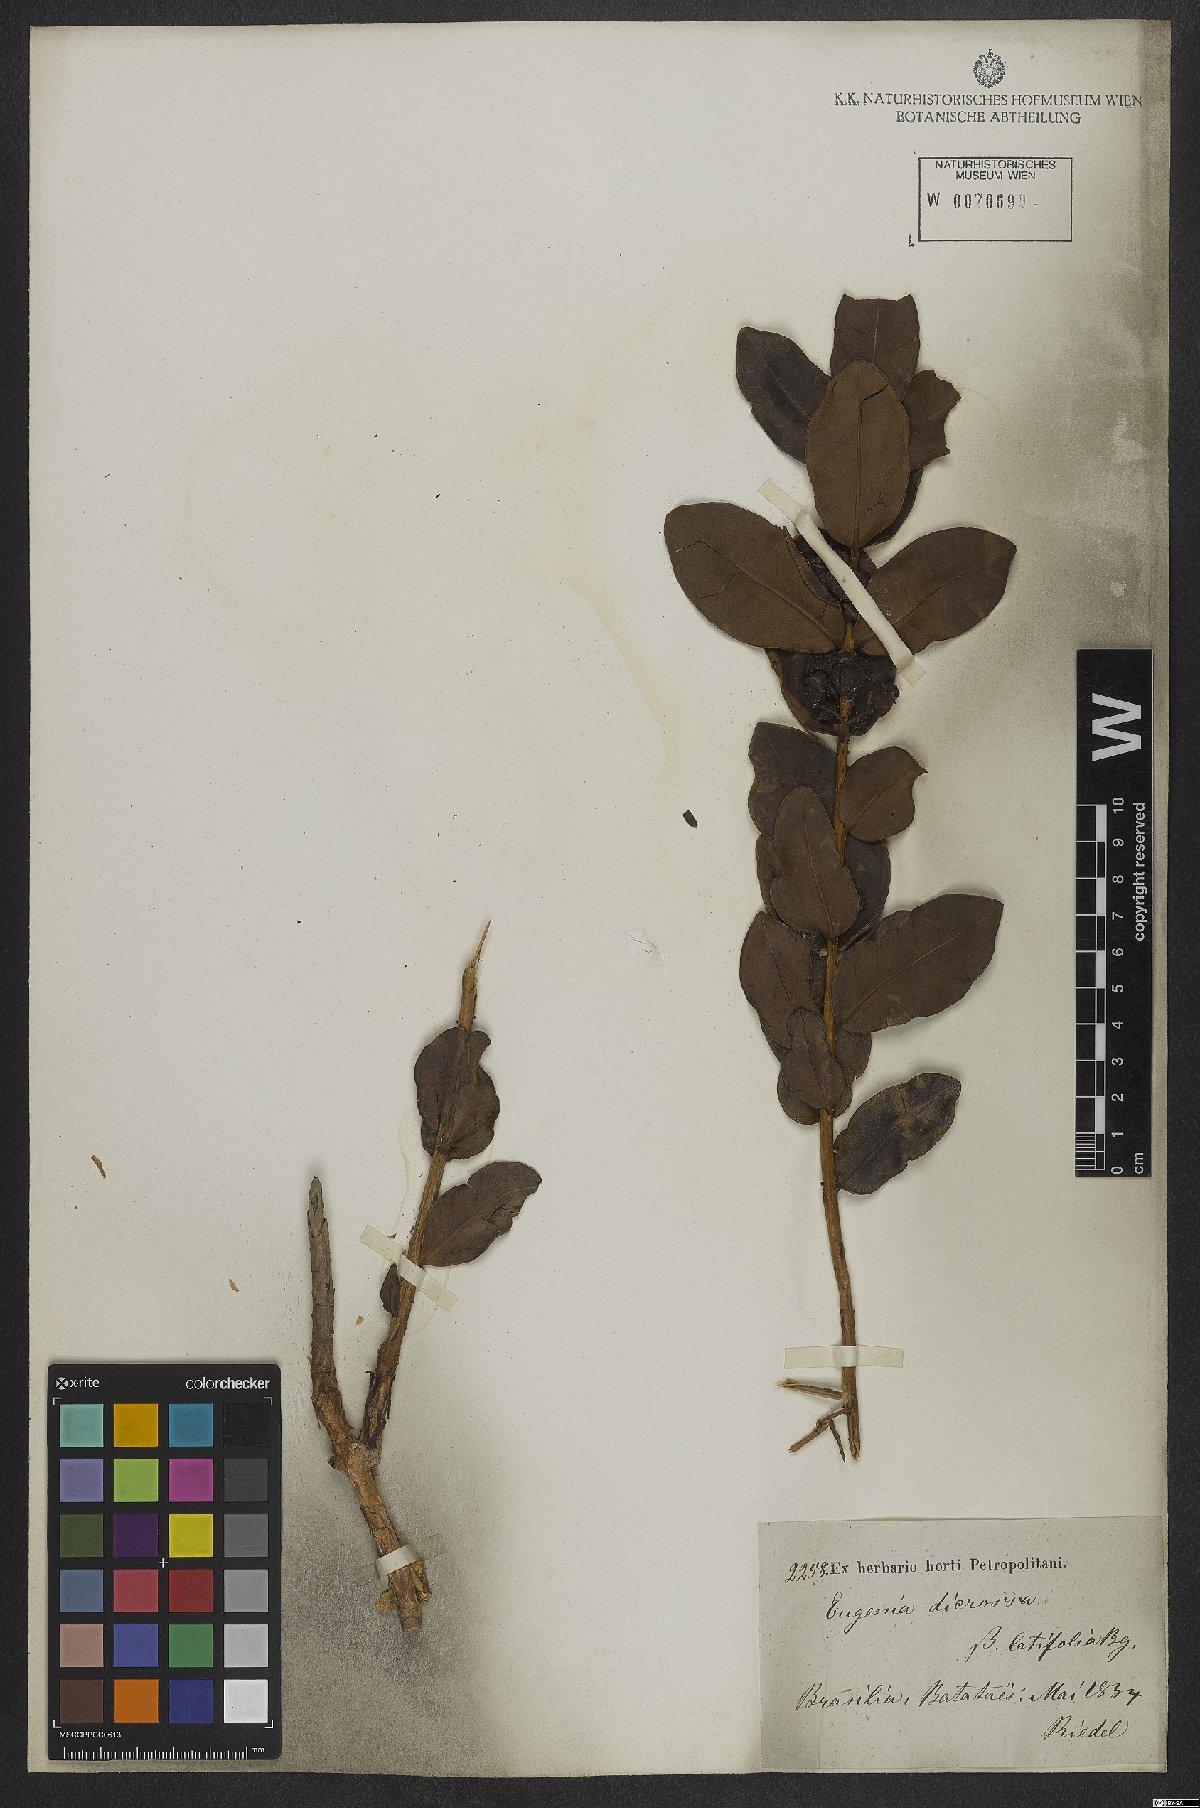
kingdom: Plantae
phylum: Tracheophyta
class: Magnoliopsida
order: Myrtales
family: Myrtaceae
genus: Eugenia
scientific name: Eugenia bimarginata
